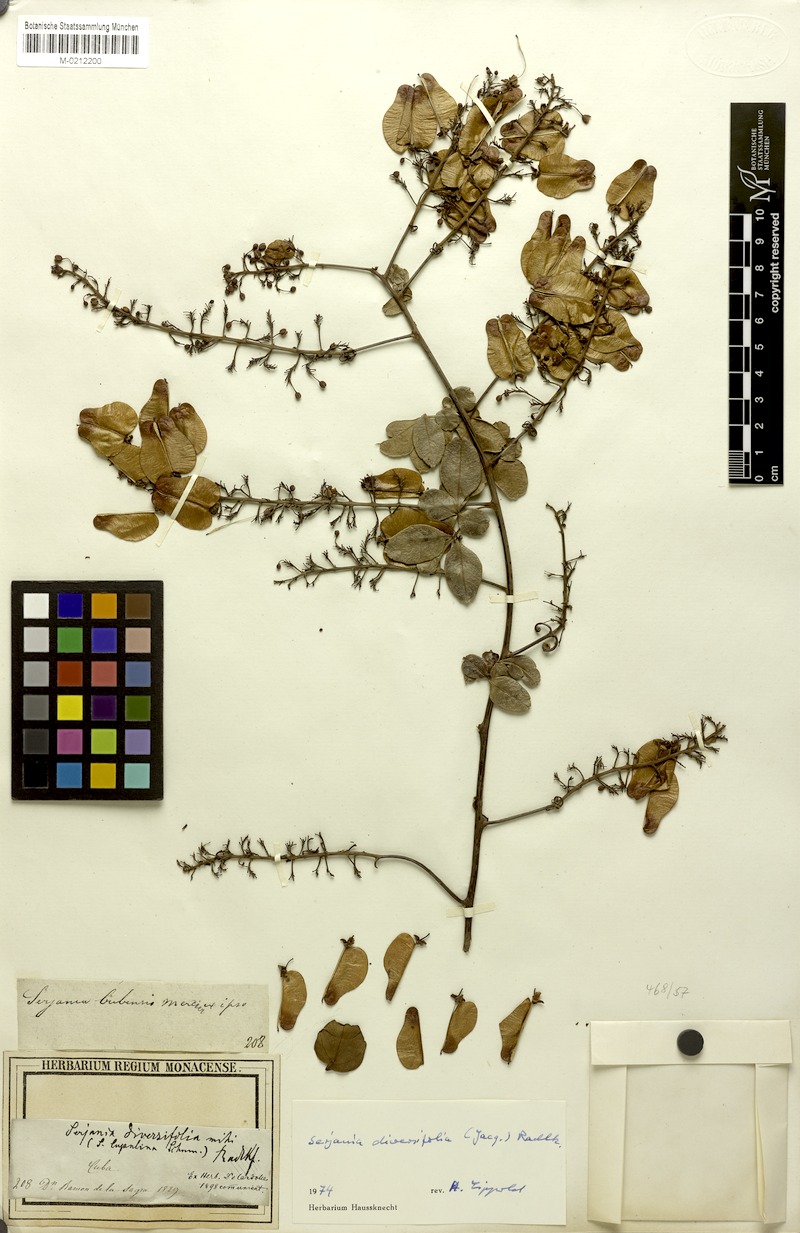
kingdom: Plantae
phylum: Tracheophyta
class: Magnoliopsida
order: Sapindales
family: Sapindaceae
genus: Serjania
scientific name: Serjania diversifolia
